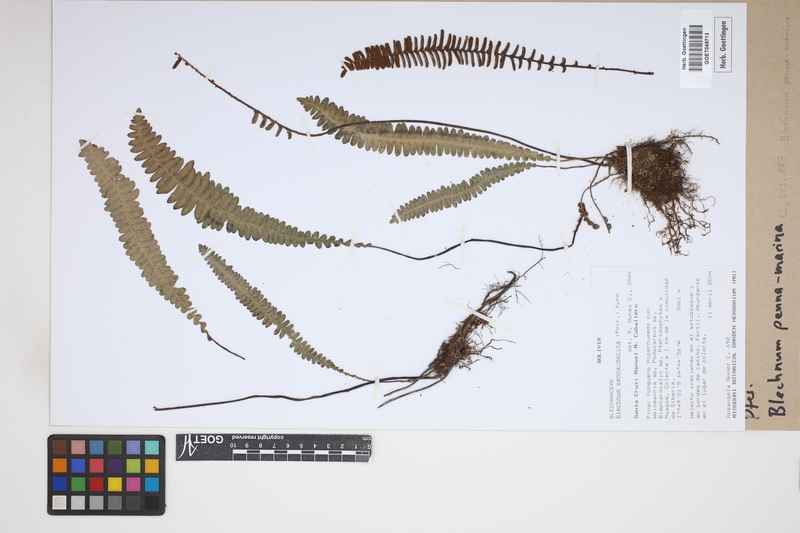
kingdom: Plantae
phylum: Tracheophyta
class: Polypodiopsida
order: Polypodiales
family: Blechnaceae
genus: Austroblechnum
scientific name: Austroblechnum penna-marina
